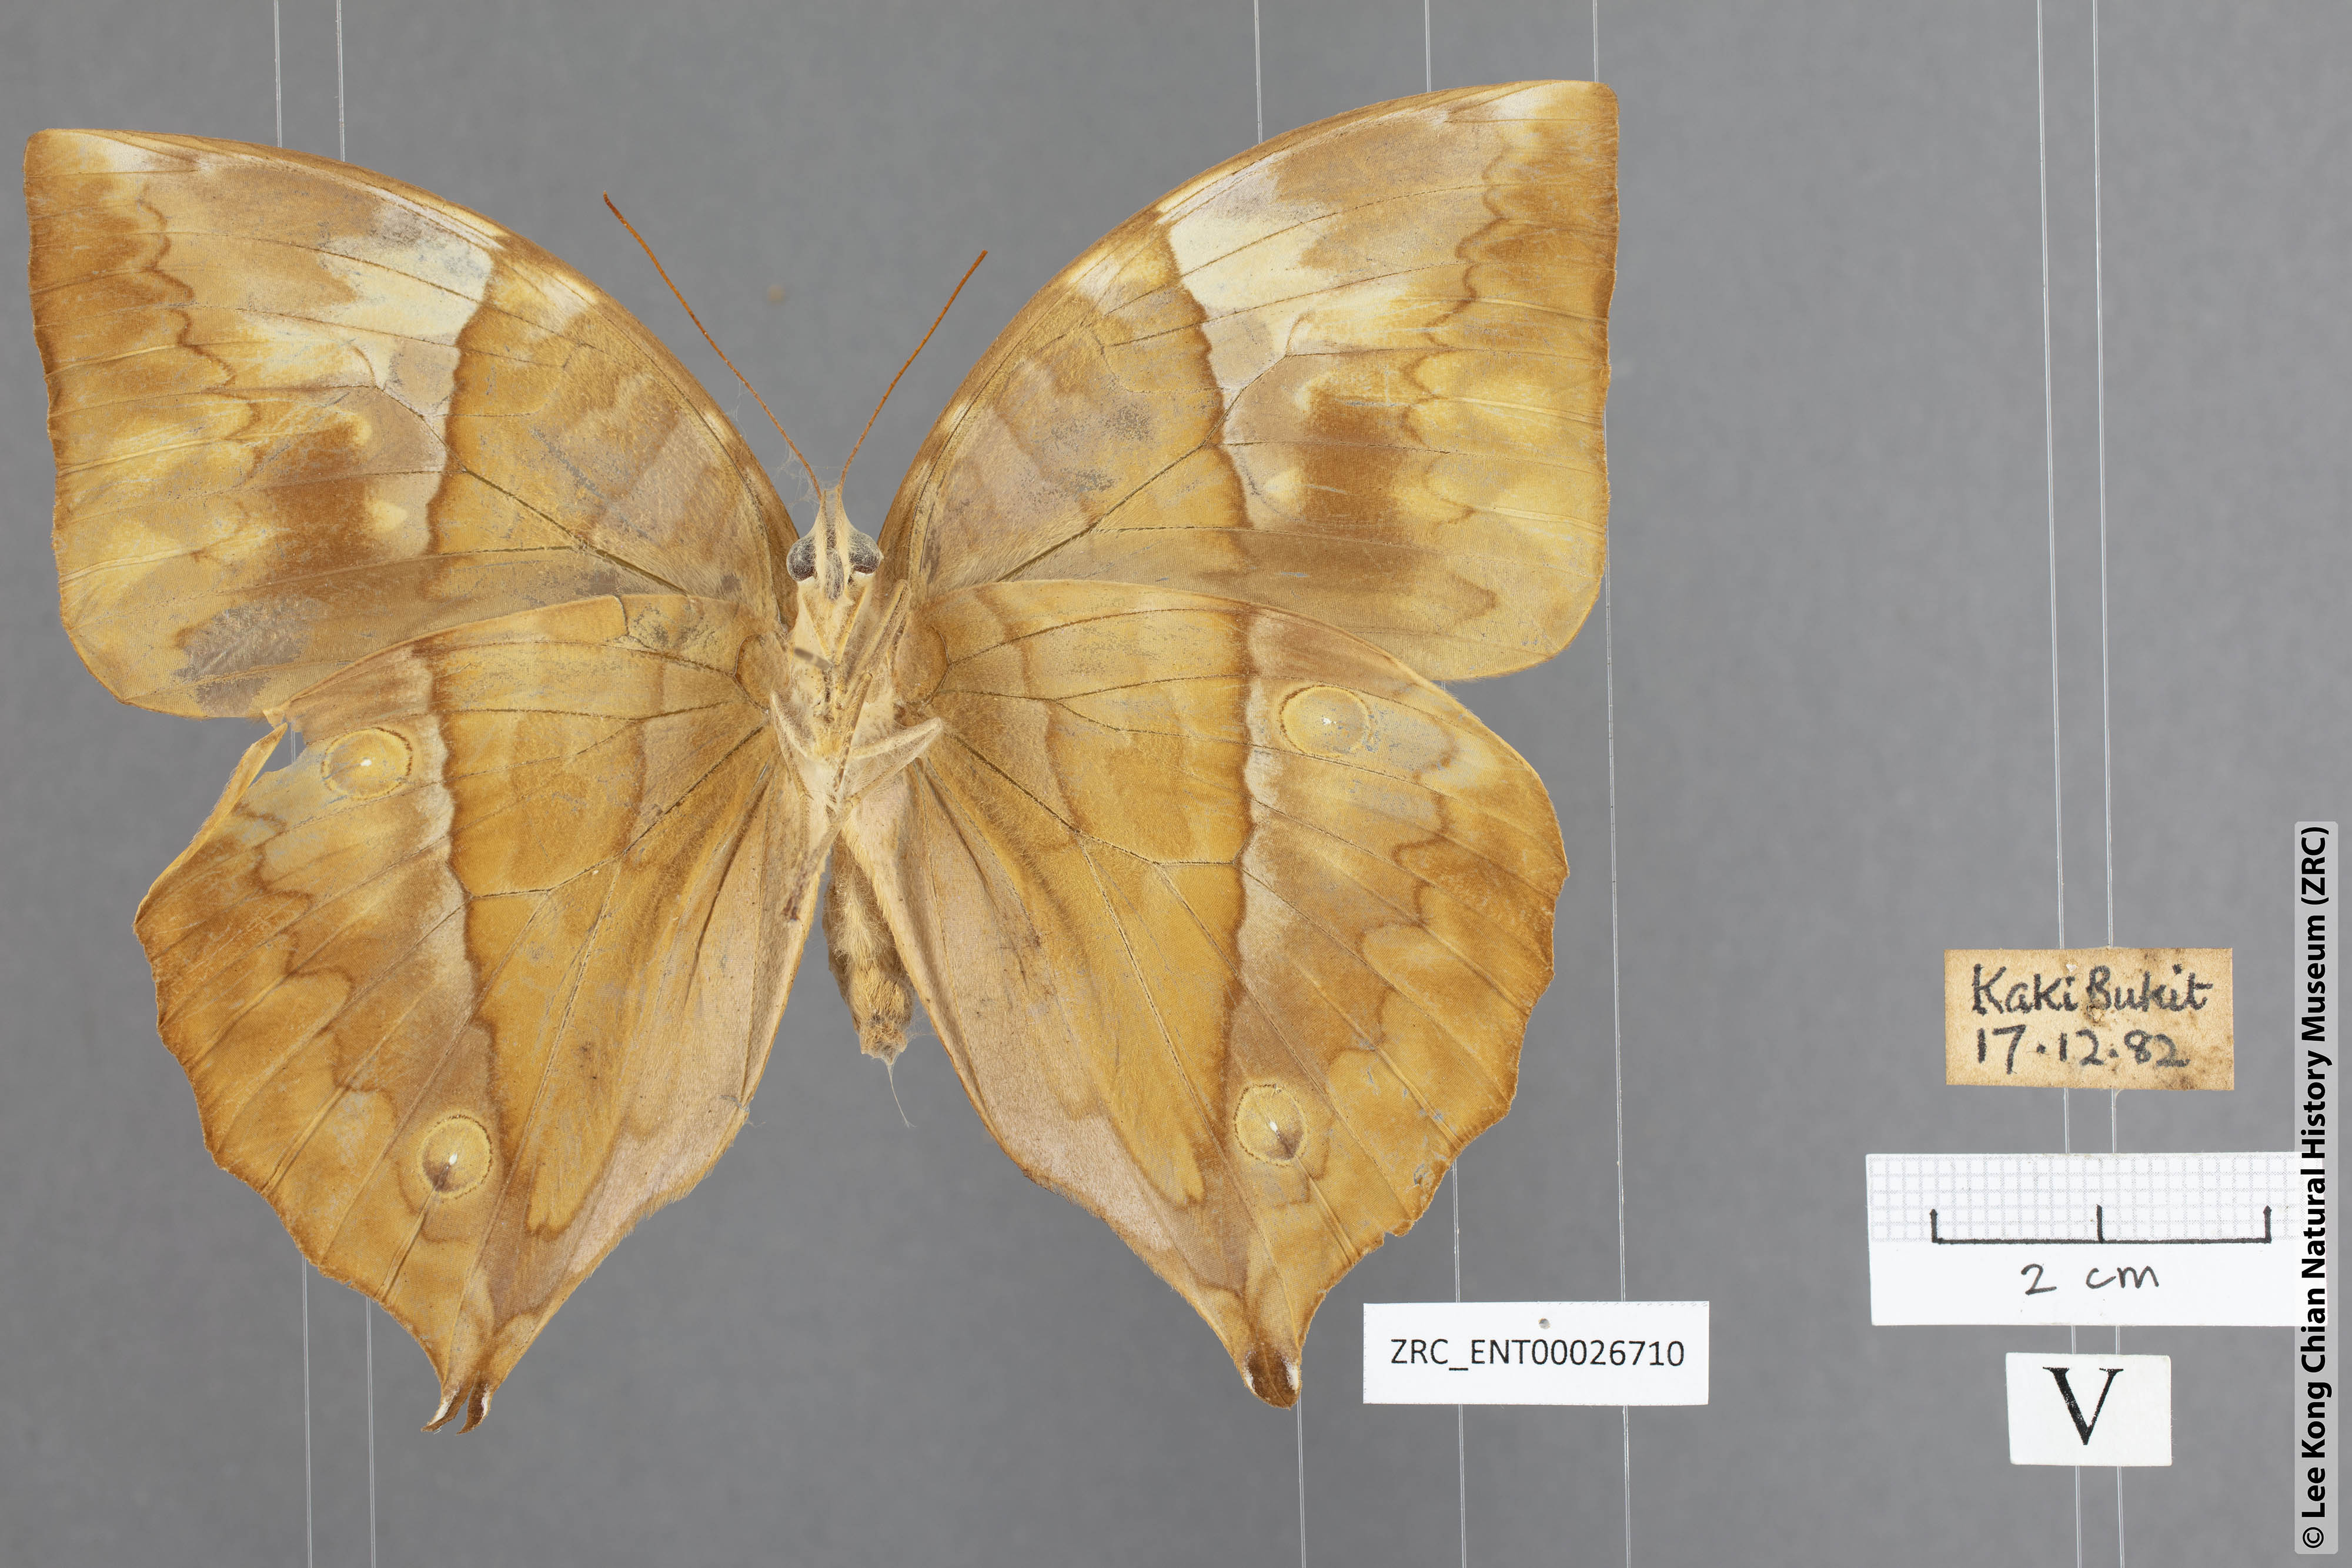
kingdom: Animalia
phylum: Arthropoda
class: Insecta
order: Lepidoptera
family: Nymphalidae
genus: Zeuxidia
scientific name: Zeuxidia ameythystus
